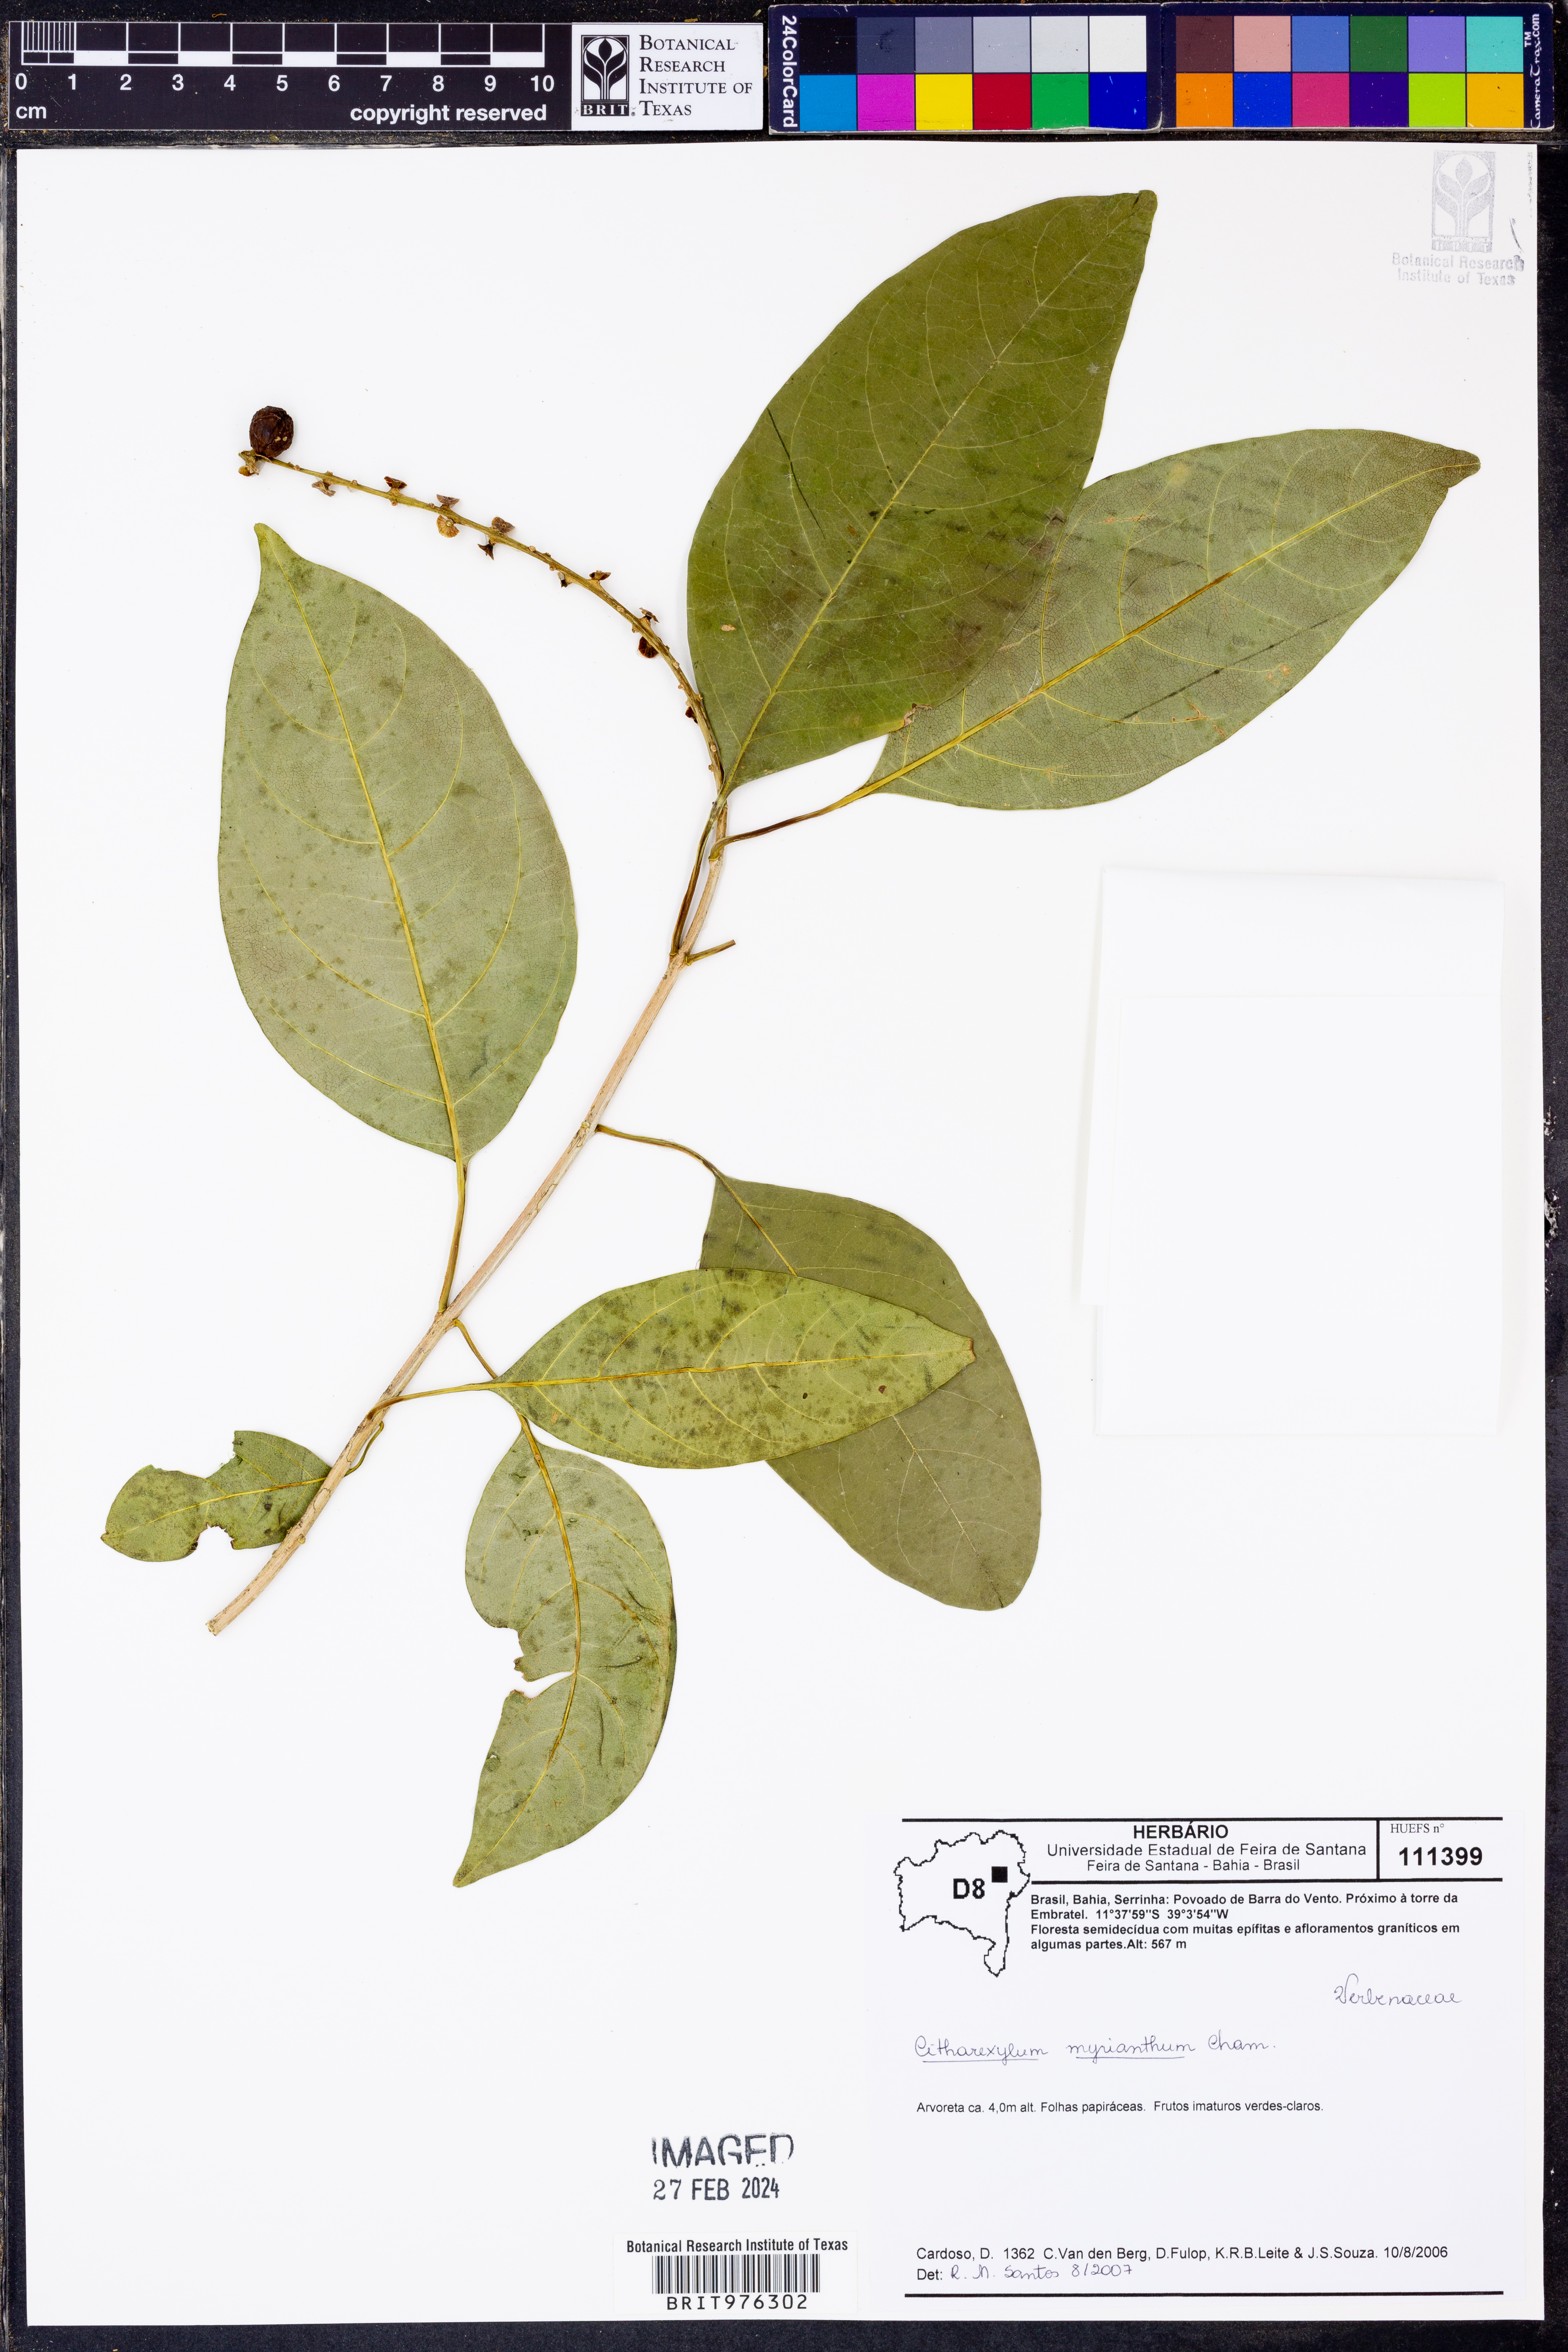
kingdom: Plantae
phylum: Tracheophyta
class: Magnoliopsida
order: Lamiales
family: Verbenaceae
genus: Citharexylum
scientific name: Citharexylum
